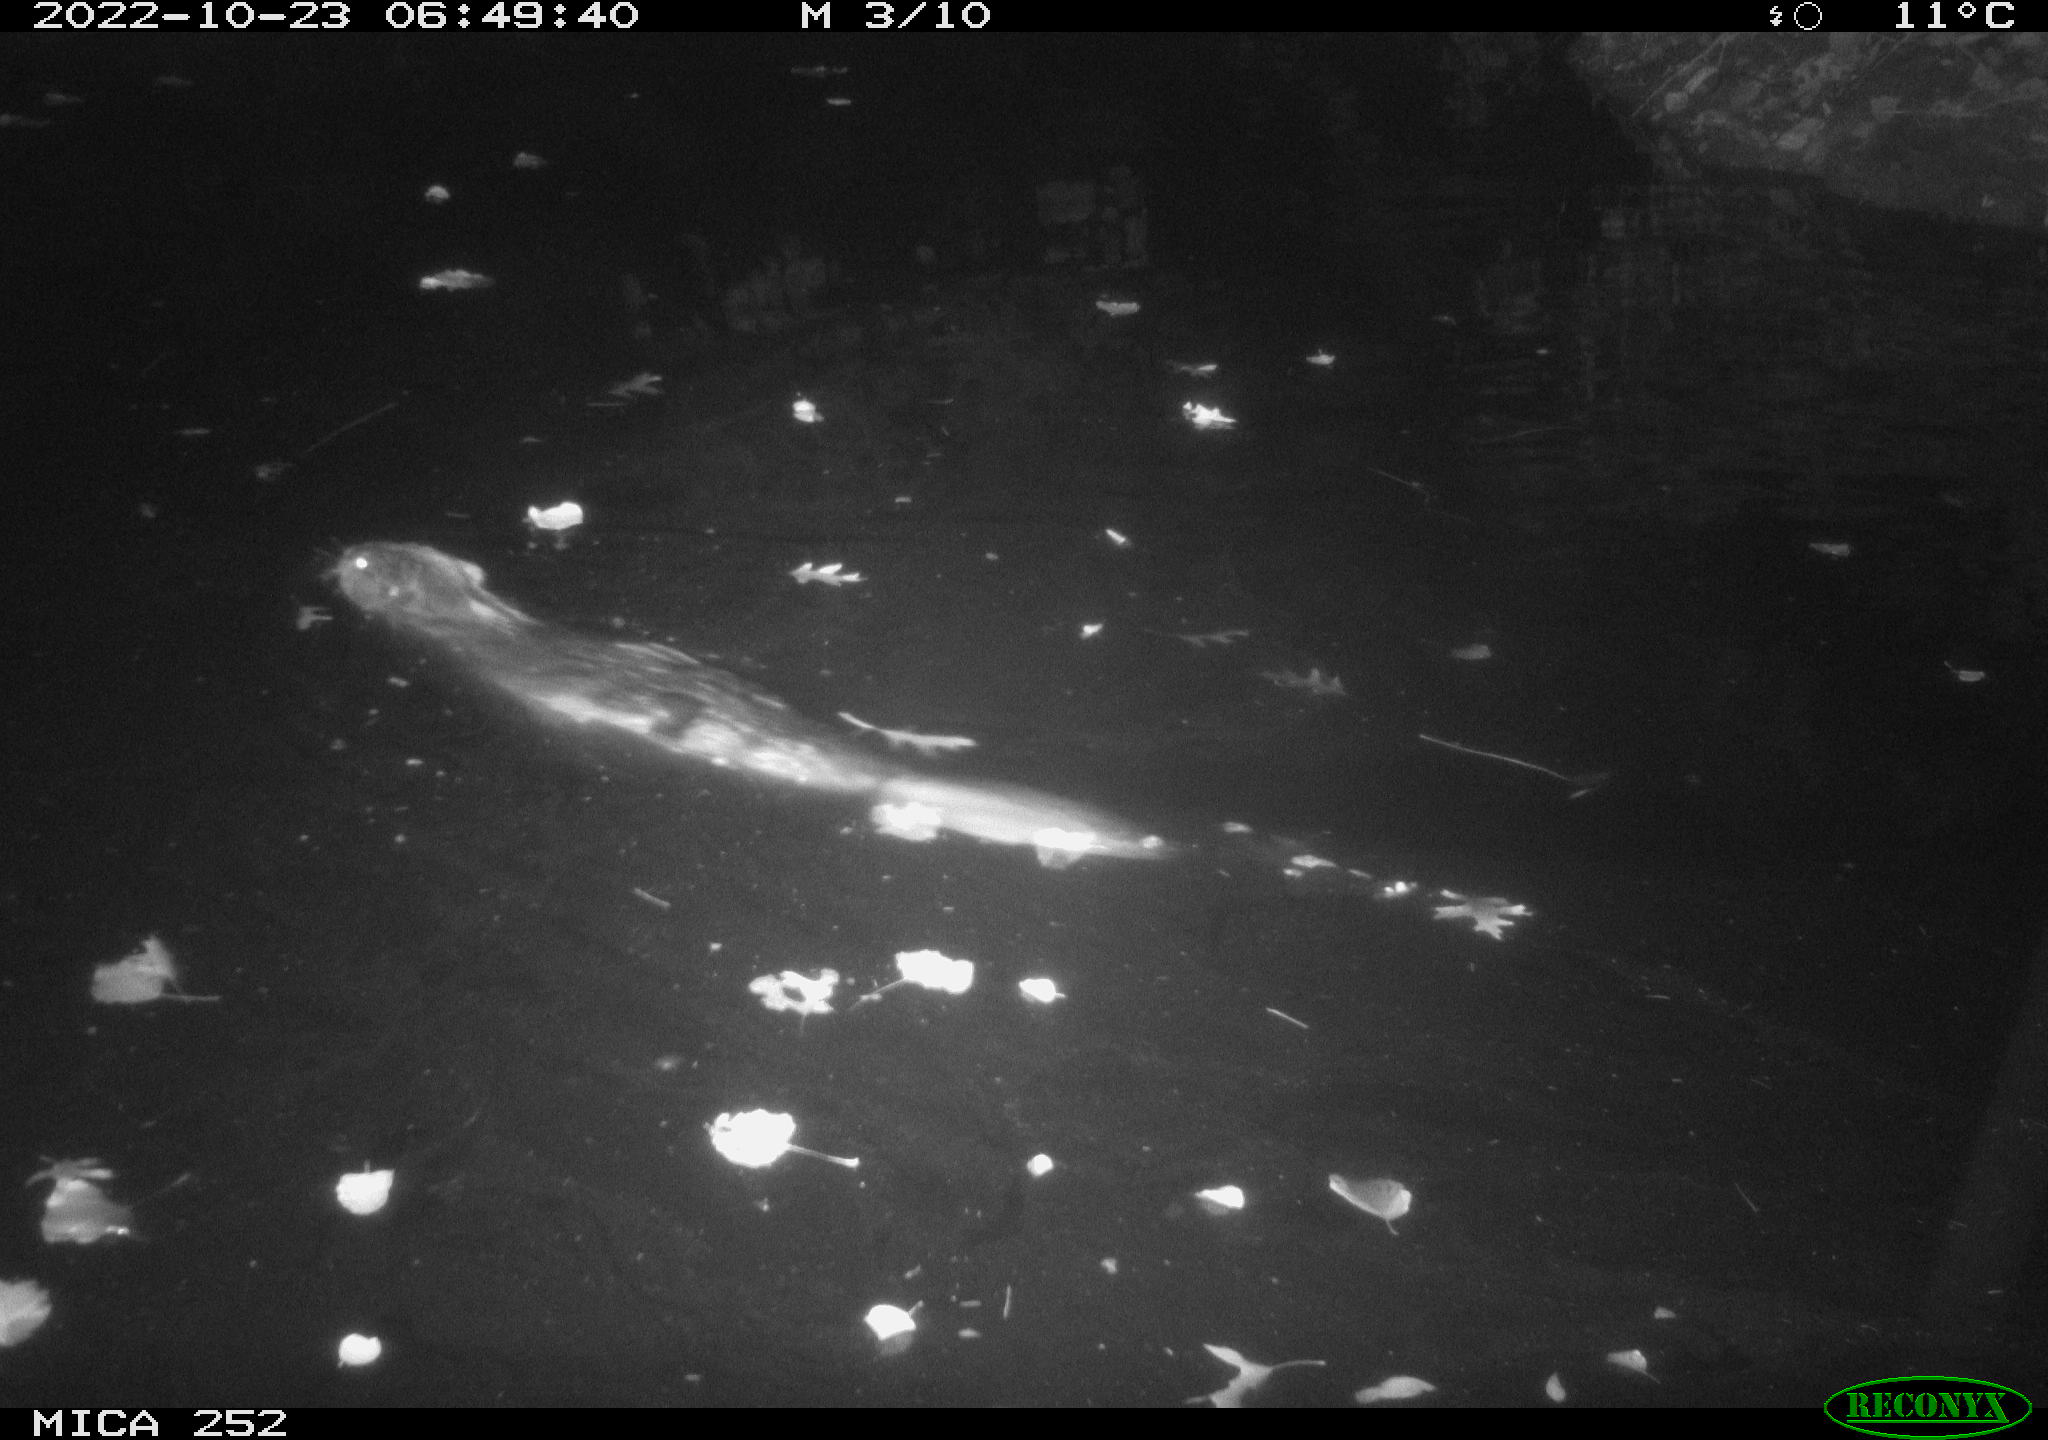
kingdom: Animalia
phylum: Chordata
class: Mammalia
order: Rodentia
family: Castoridae
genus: Castor
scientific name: Castor fiber
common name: Eurasian beaver
